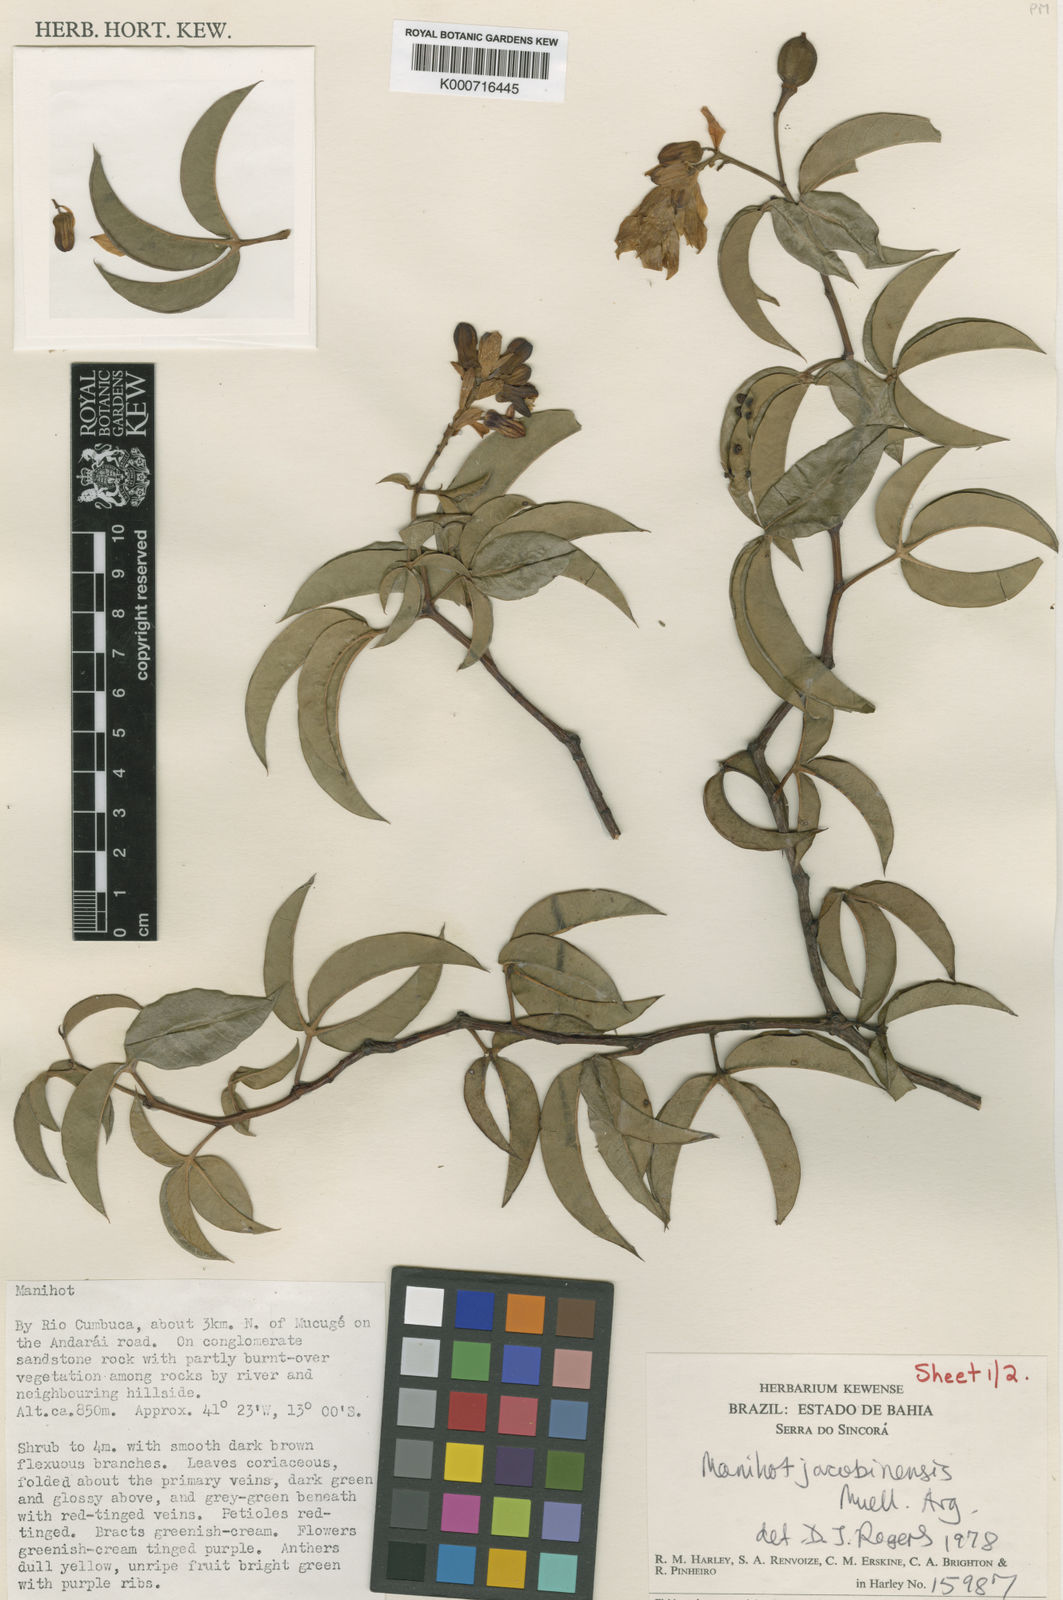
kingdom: Plantae
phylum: Tracheophyta
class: Magnoliopsida
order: Malpighiales
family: Euphorbiaceae
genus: Manihot
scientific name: Manihot
